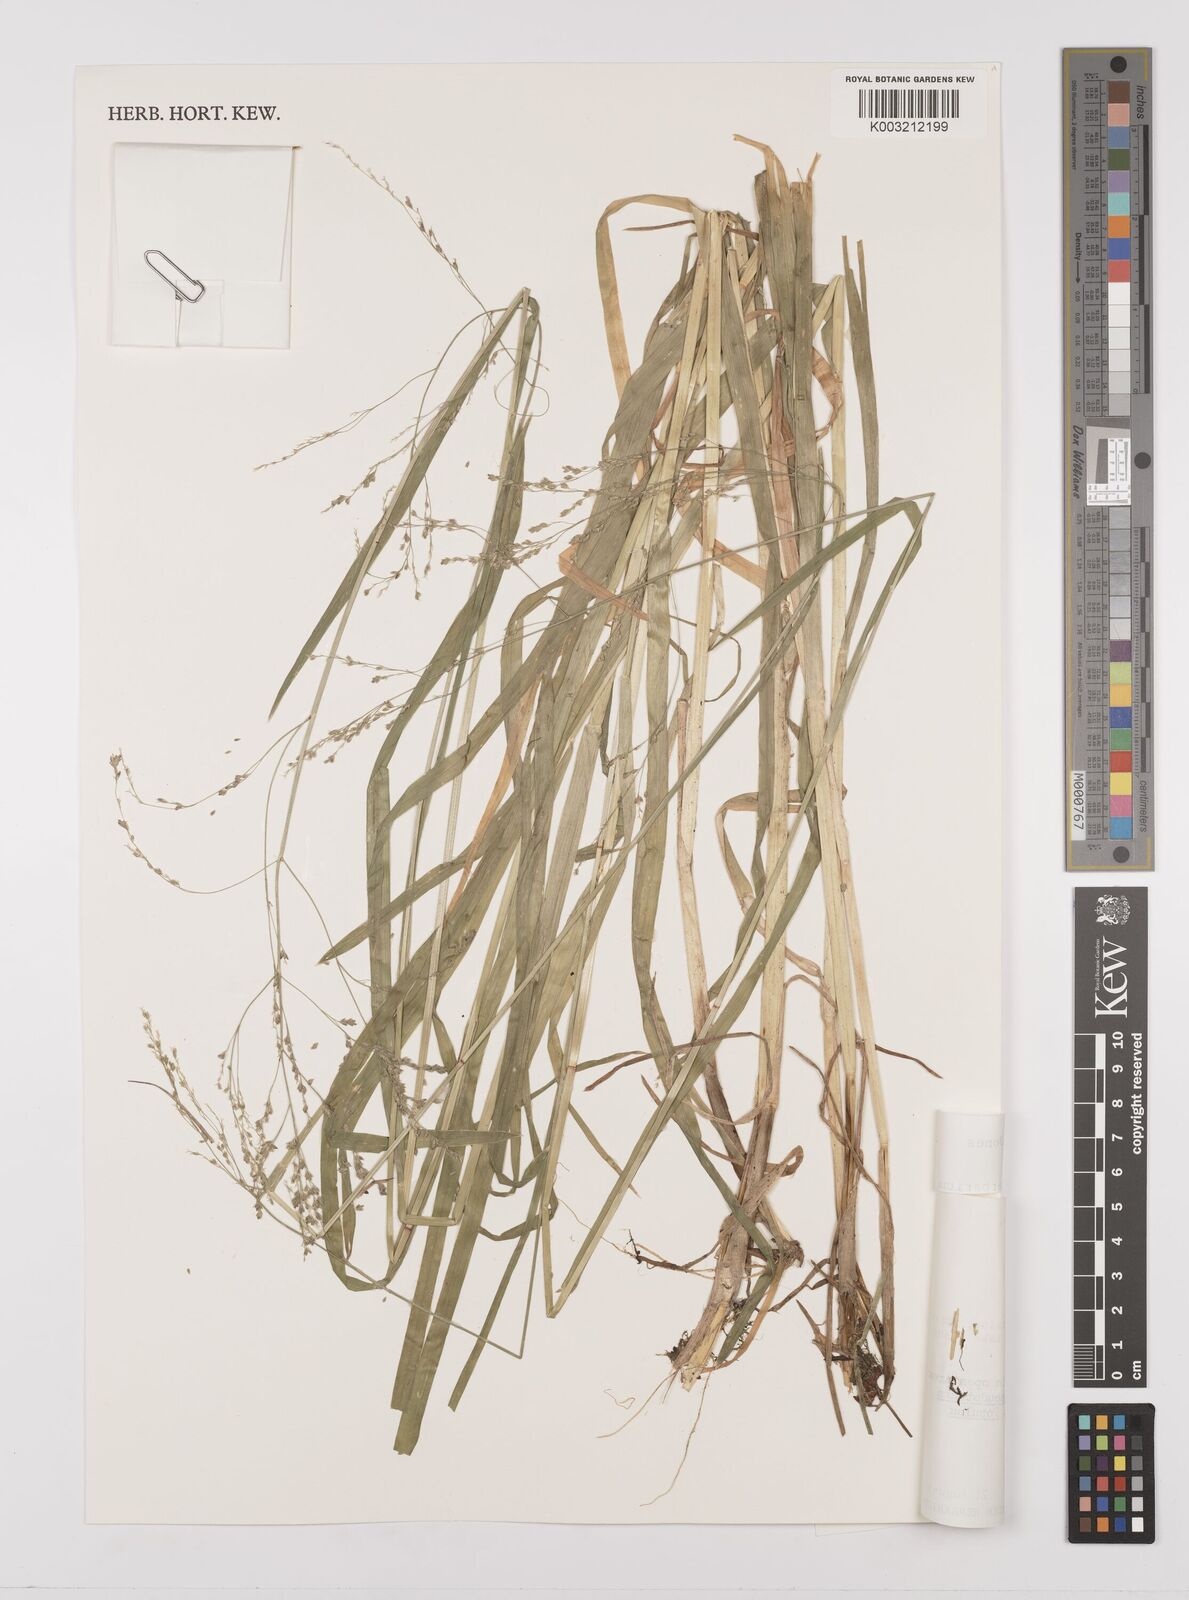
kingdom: Plantae
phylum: Tracheophyta
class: Liliopsida
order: Poales
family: Poaceae
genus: Glyceria
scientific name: Glyceria
